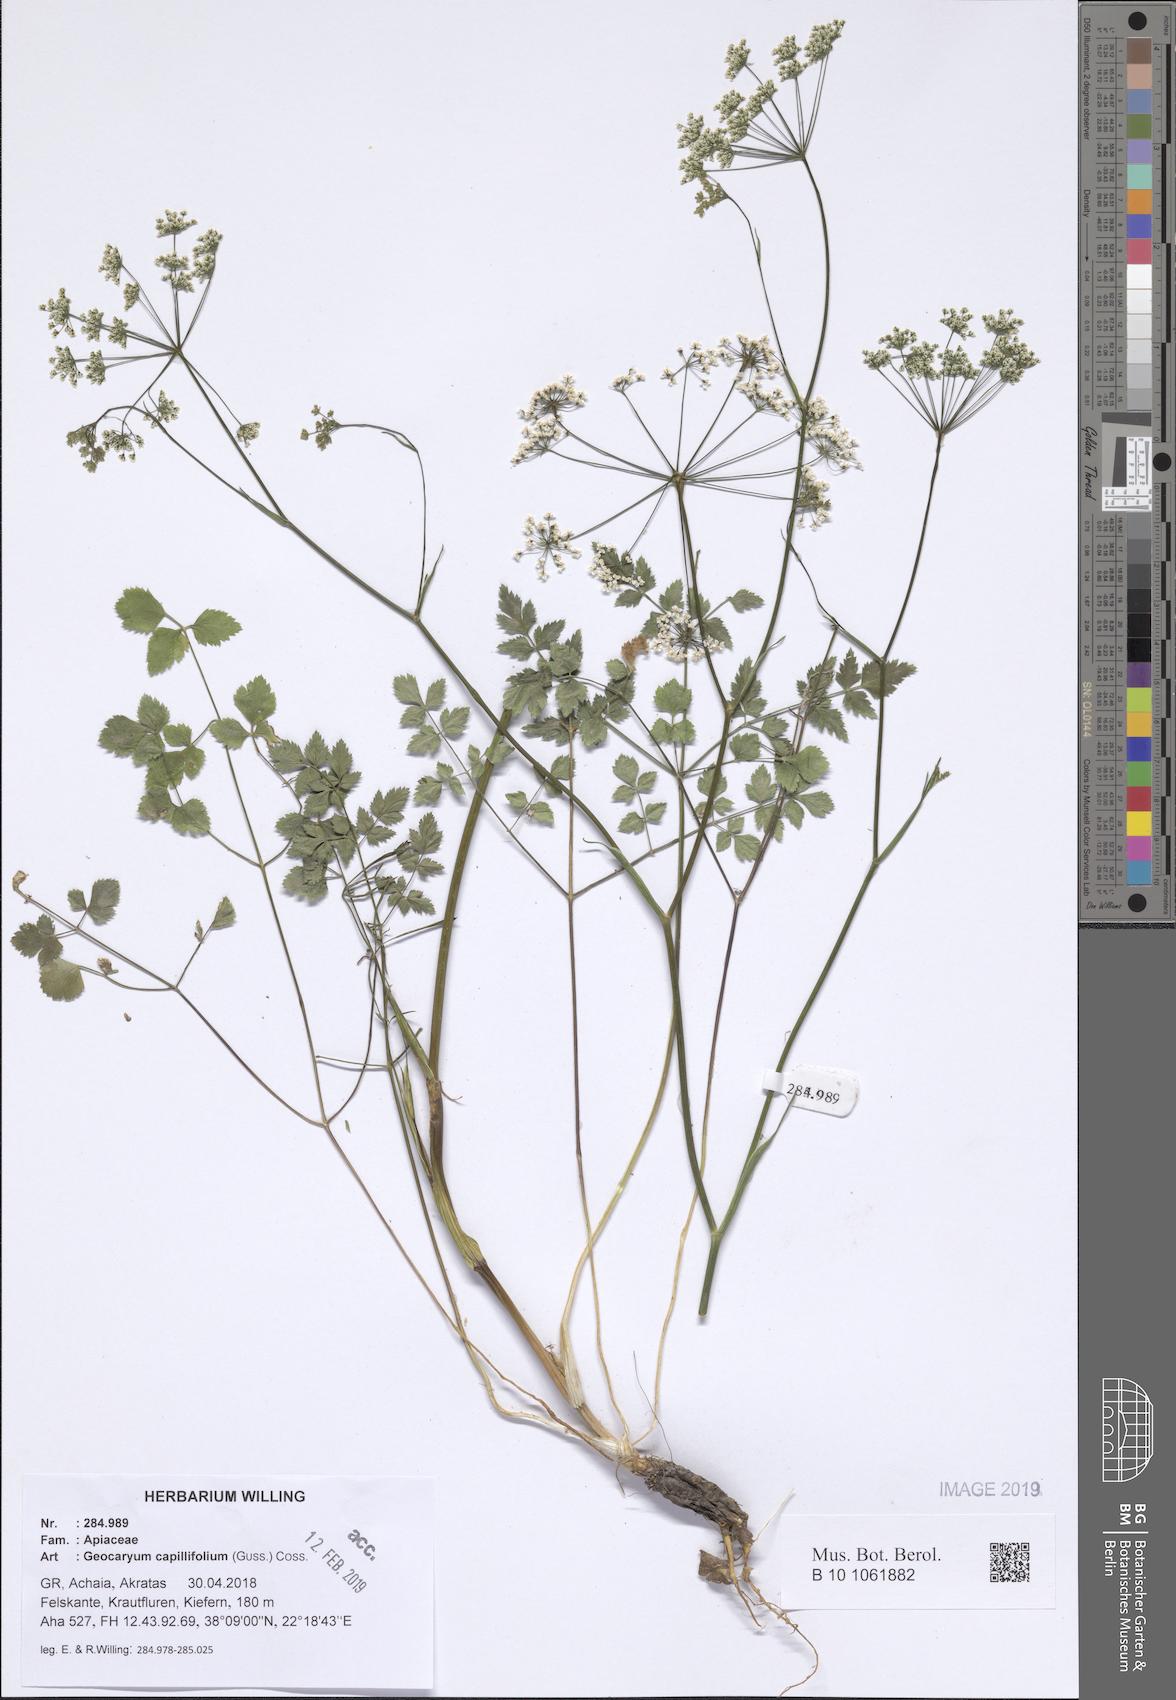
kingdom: Plantae
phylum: Tracheophyta
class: Magnoliopsida
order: Apiales
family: Apiaceae
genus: Geocaryum
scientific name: Geocaryum capillifolium
